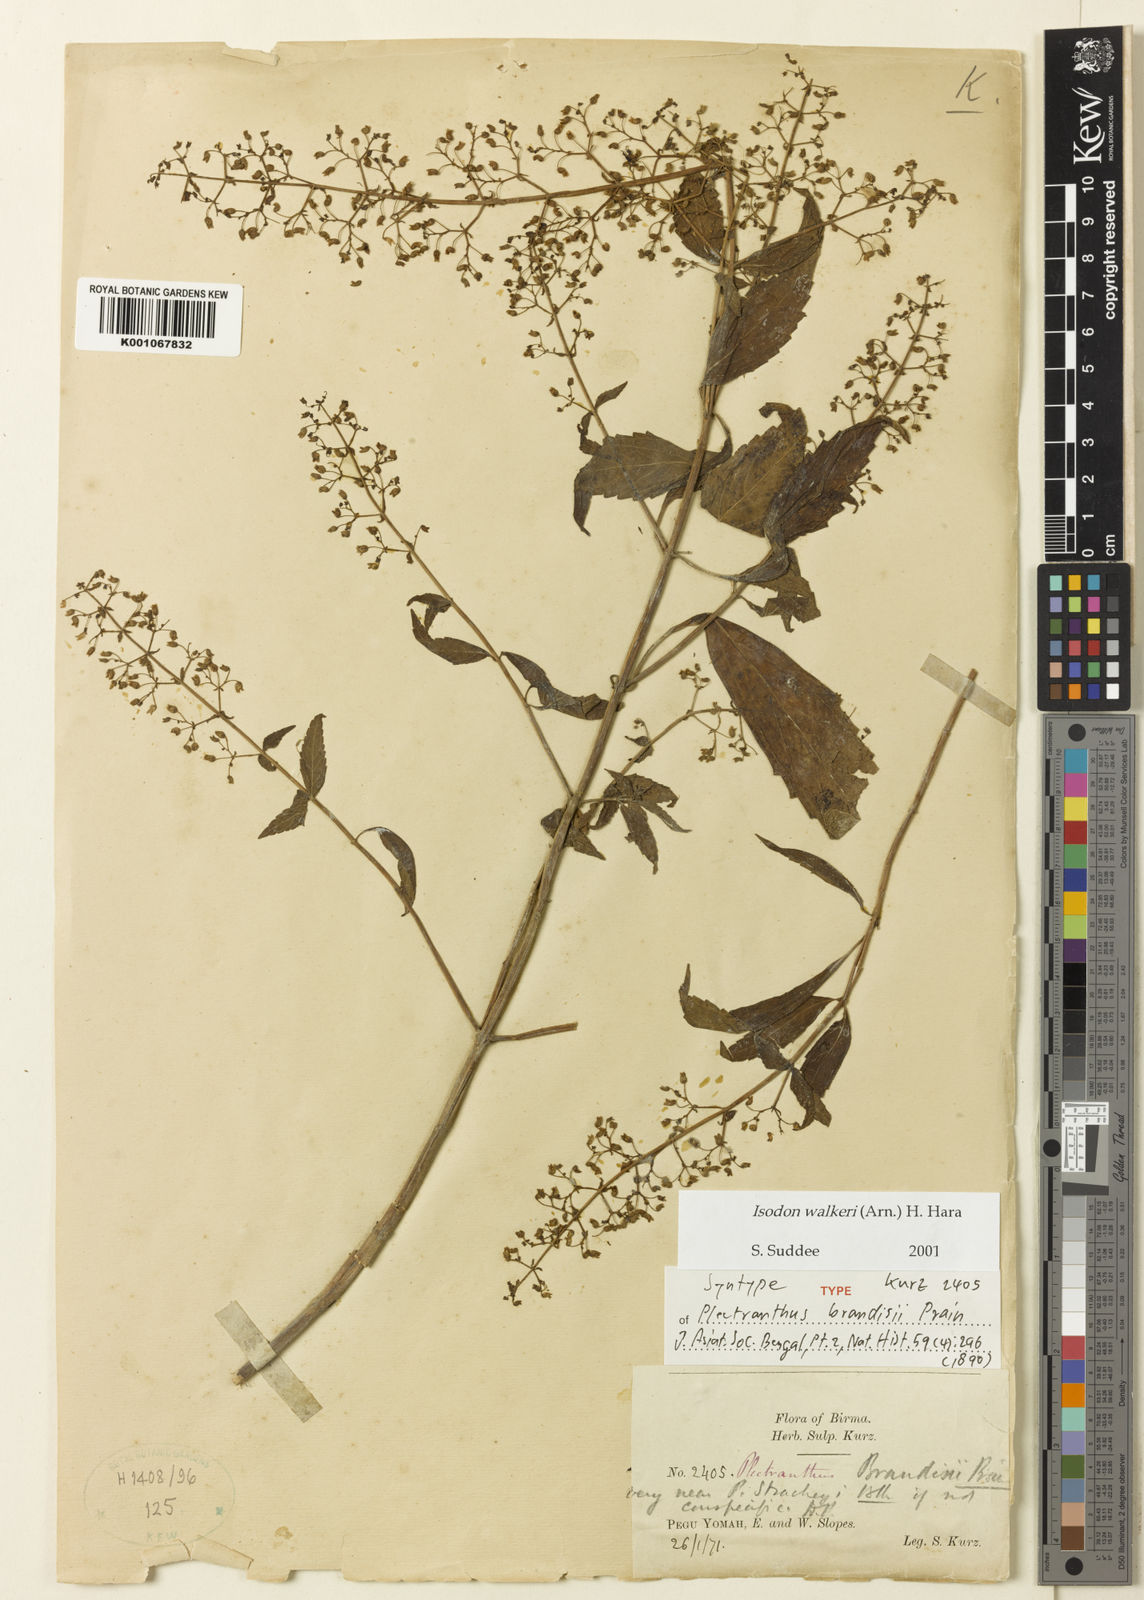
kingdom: Plantae
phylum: Tracheophyta
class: Magnoliopsida
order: Lamiales
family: Lamiaceae
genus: Isodon
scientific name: Isodon walkeri
